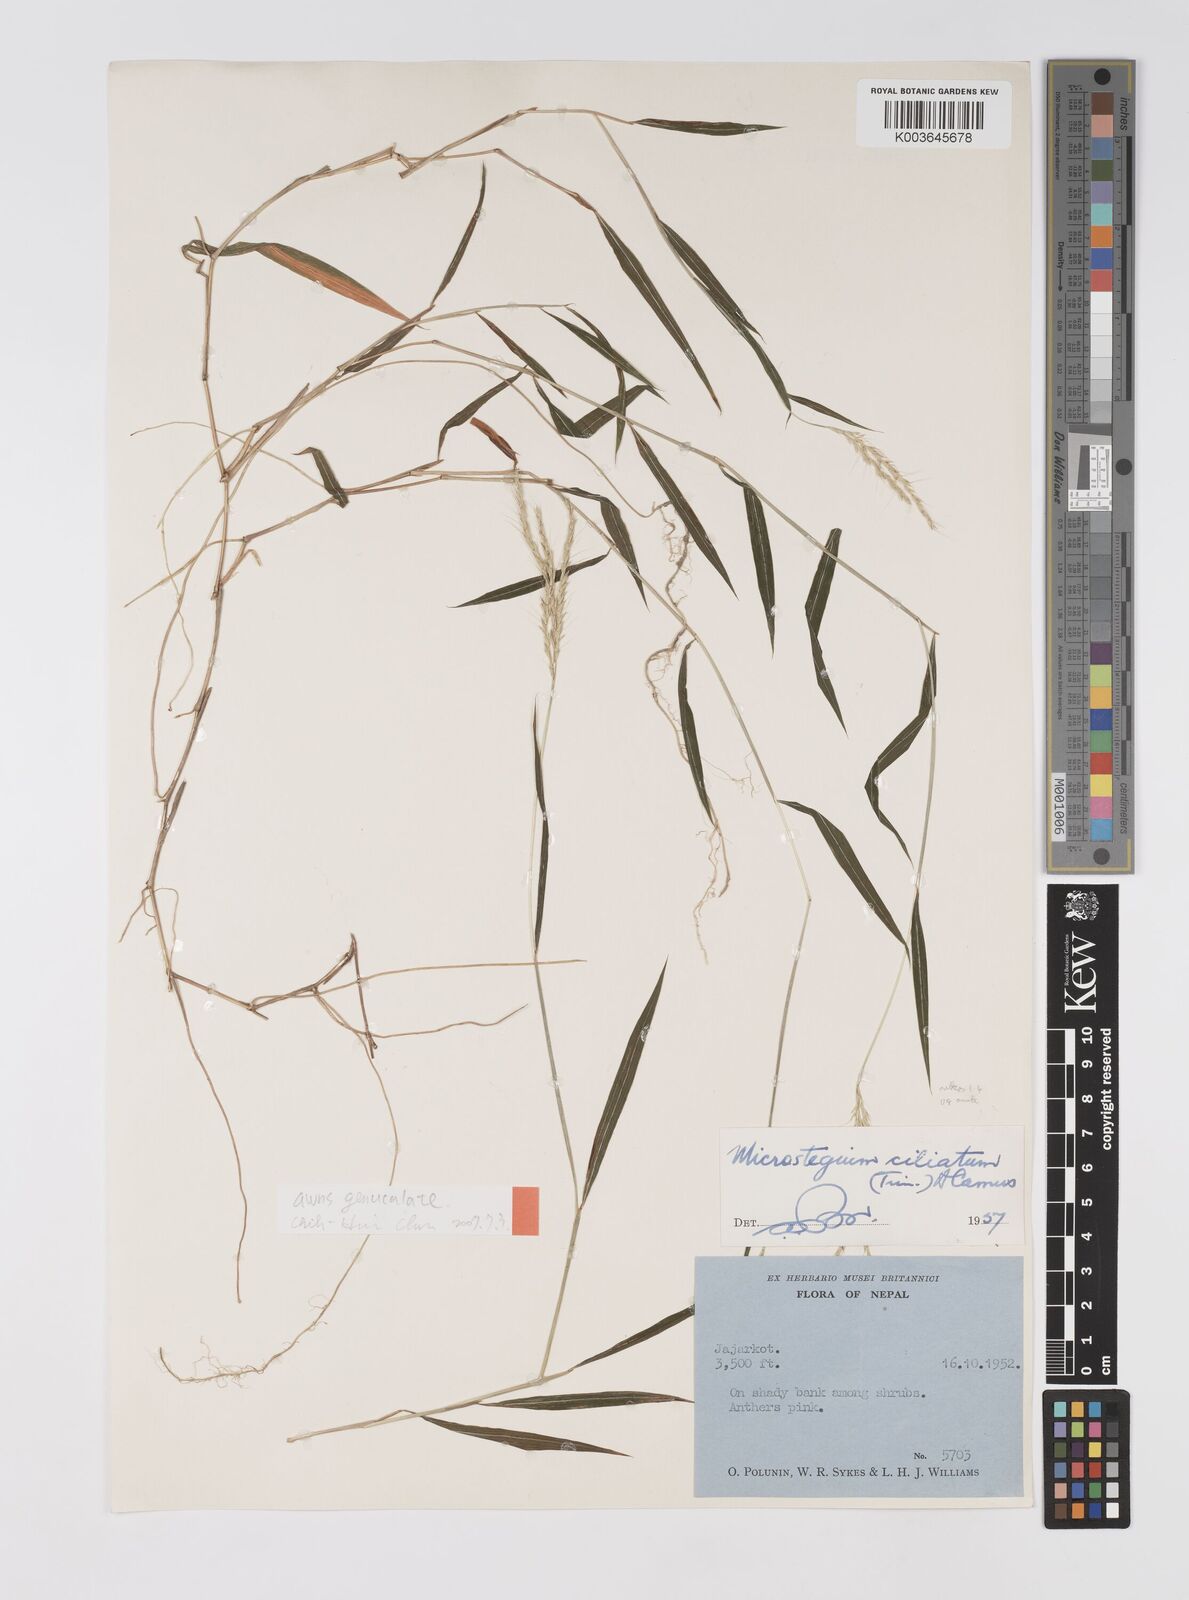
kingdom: Plantae
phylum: Tracheophyta
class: Liliopsida
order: Poales
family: Poaceae
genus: Microstegium
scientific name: Microstegium fasciculatum
